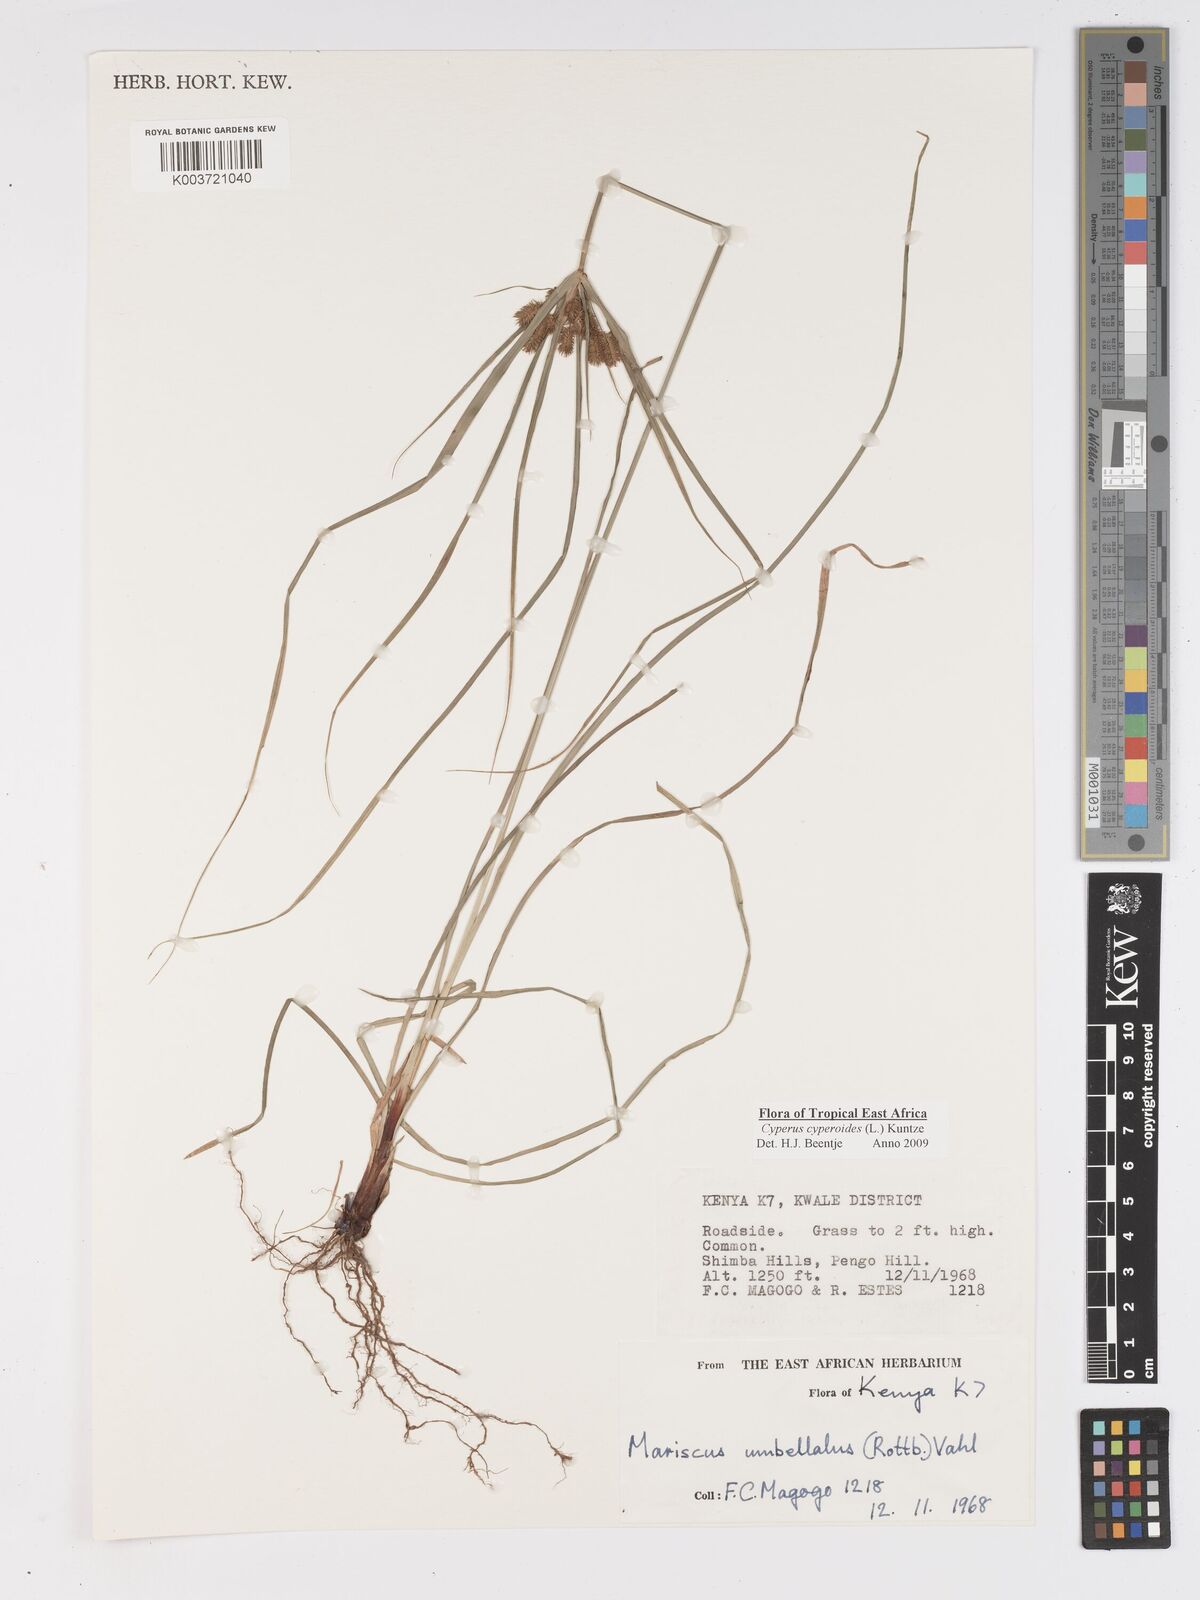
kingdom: Plantae
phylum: Tracheophyta
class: Liliopsida
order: Poales
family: Cyperaceae
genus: Cyperus
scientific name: Cyperus cyperoides
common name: Pacific island flat sedge
